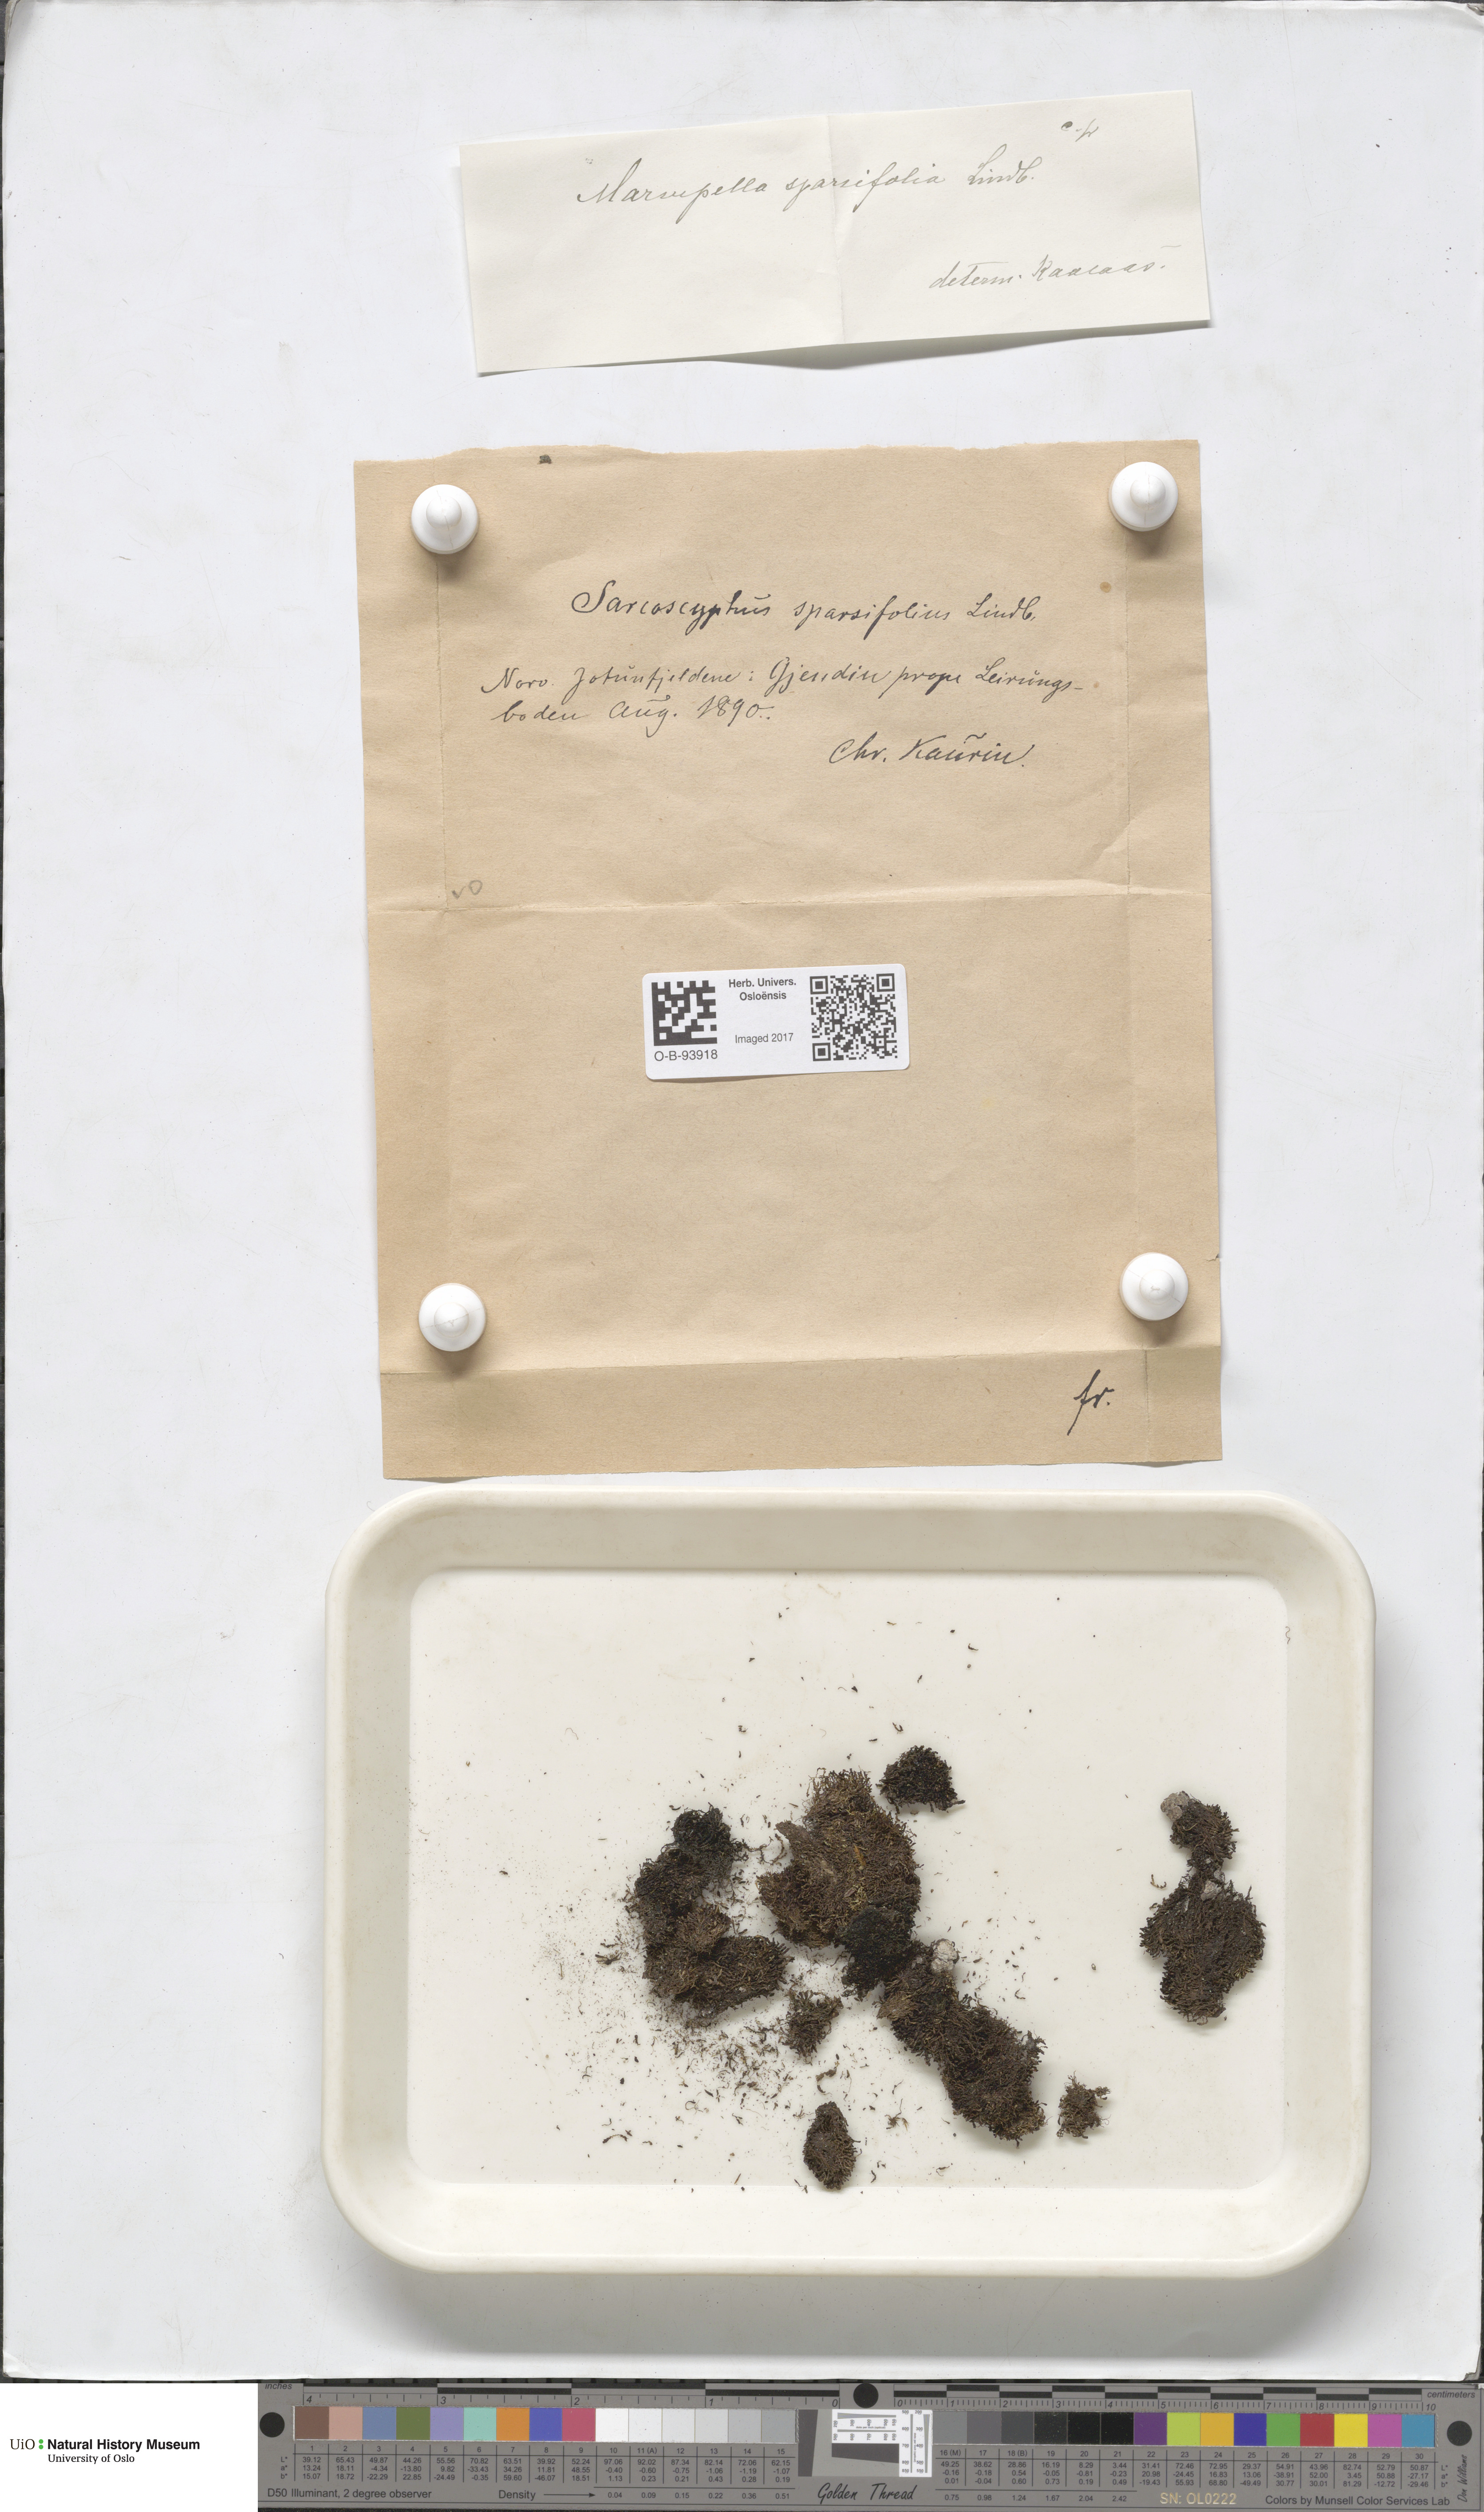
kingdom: Plantae
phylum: Marchantiophyta
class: Jungermanniopsida
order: Jungermanniales
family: Gymnomitriaceae
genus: Marsupella
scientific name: Marsupella sparsifolia
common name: Rounded rustwort
